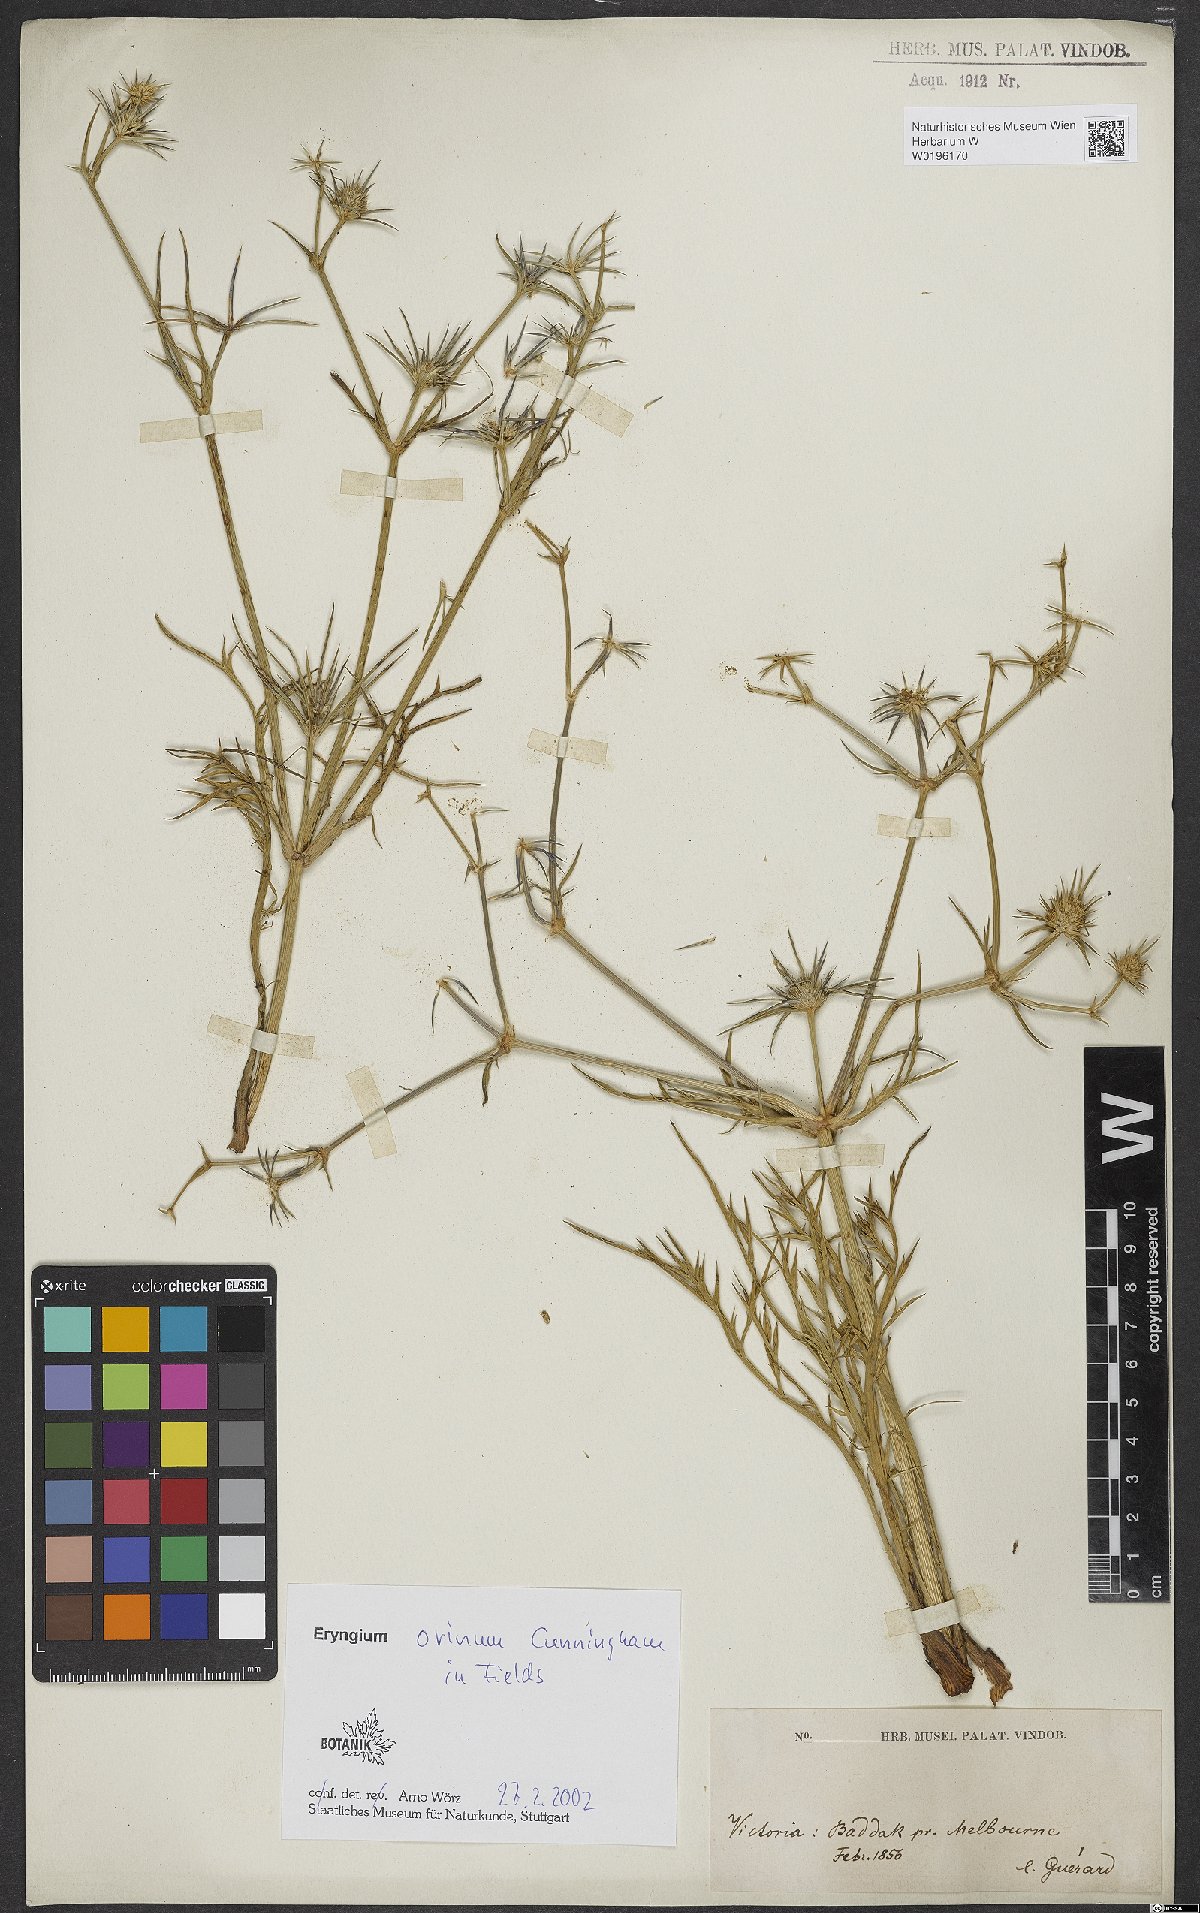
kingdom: Plantae
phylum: Tracheophyta
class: Magnoliopsida
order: Apiales
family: Apiaceae
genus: Eryngium
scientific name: Eryngium ovinum
